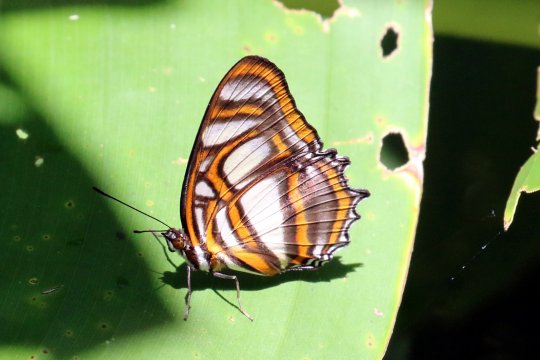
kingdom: Animalia
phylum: Arthropoda
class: Insecta
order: Lepidoptera
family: Nymphalidae
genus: Metamorpha
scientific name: Metamorpha elissa
